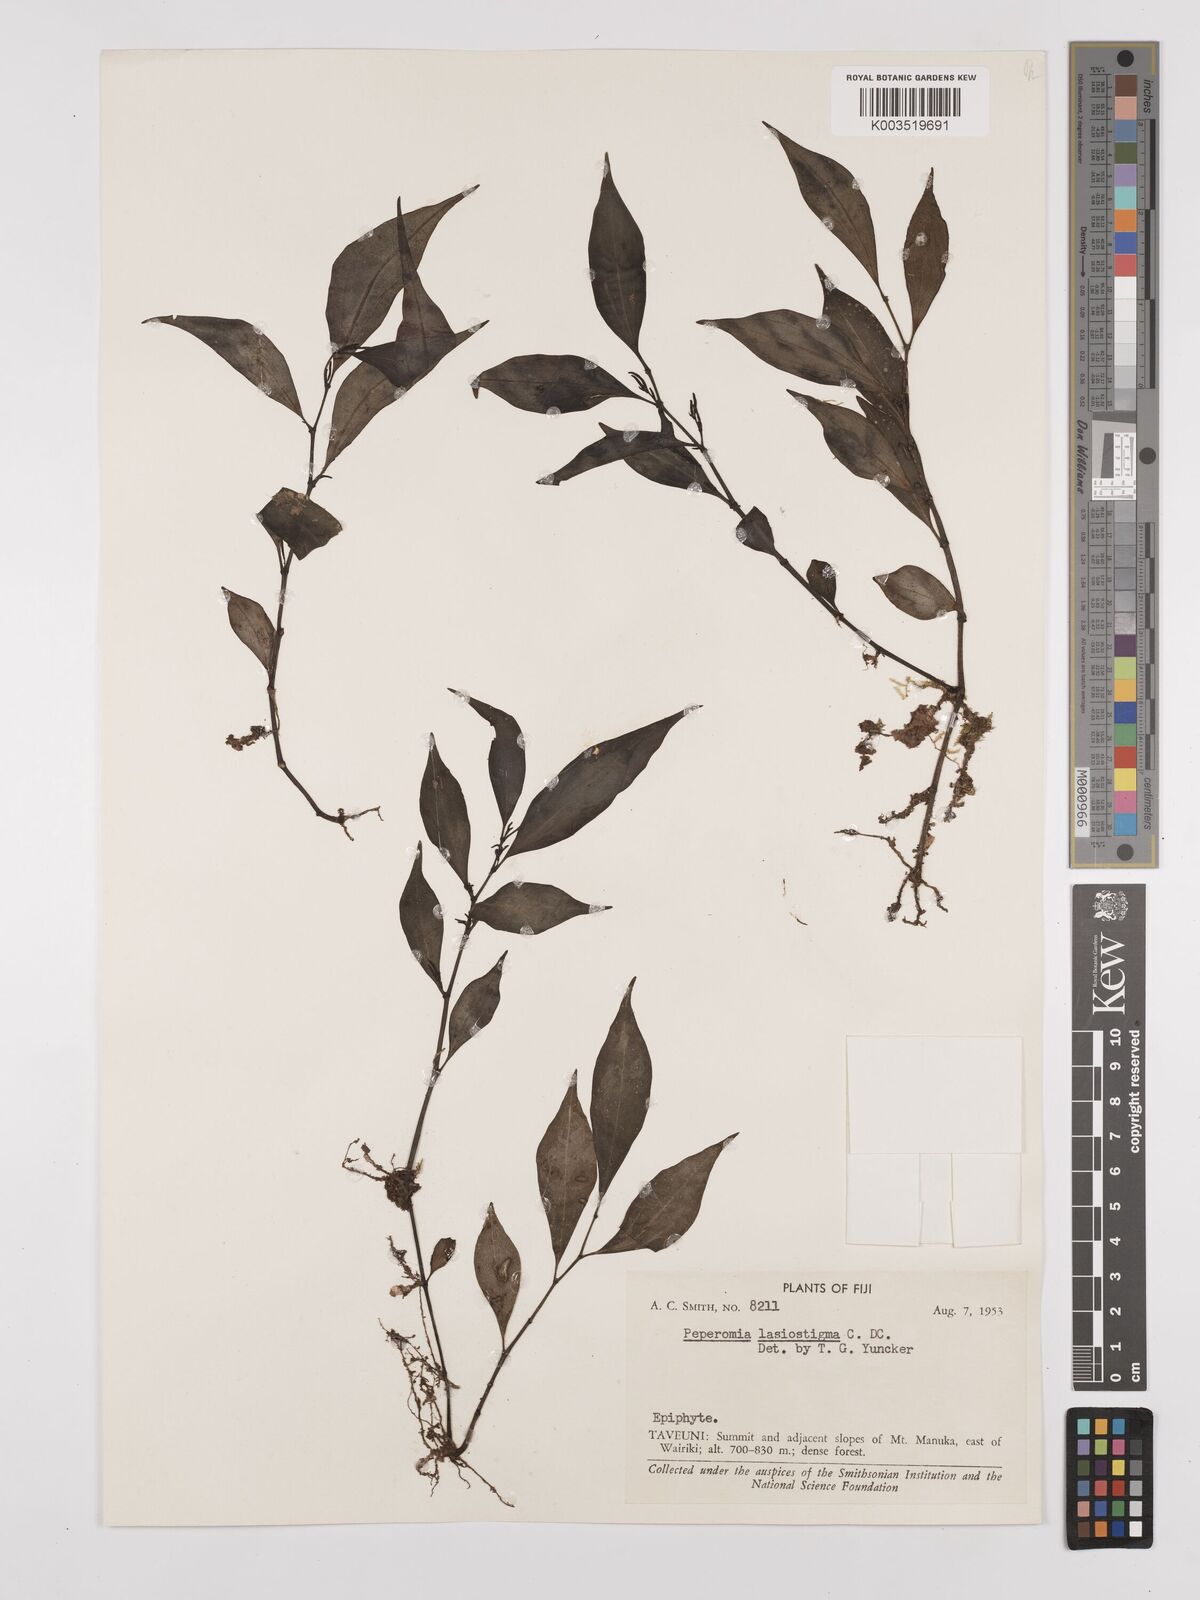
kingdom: Plantae
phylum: Tracheophyta
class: Magnoliopsida
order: Piperales
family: Piperaceae
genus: Peperomia
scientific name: Peperomia lasiostigma
